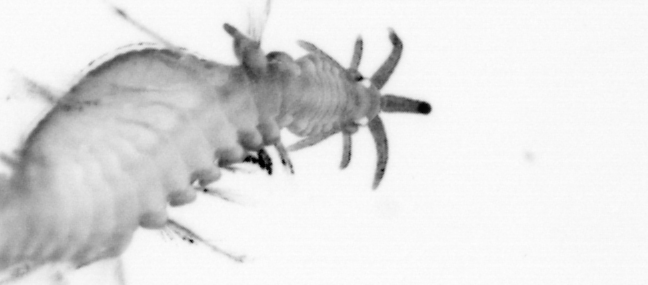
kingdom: Animalia
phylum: Annelida
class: Polychaeta
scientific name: Polychaeta
